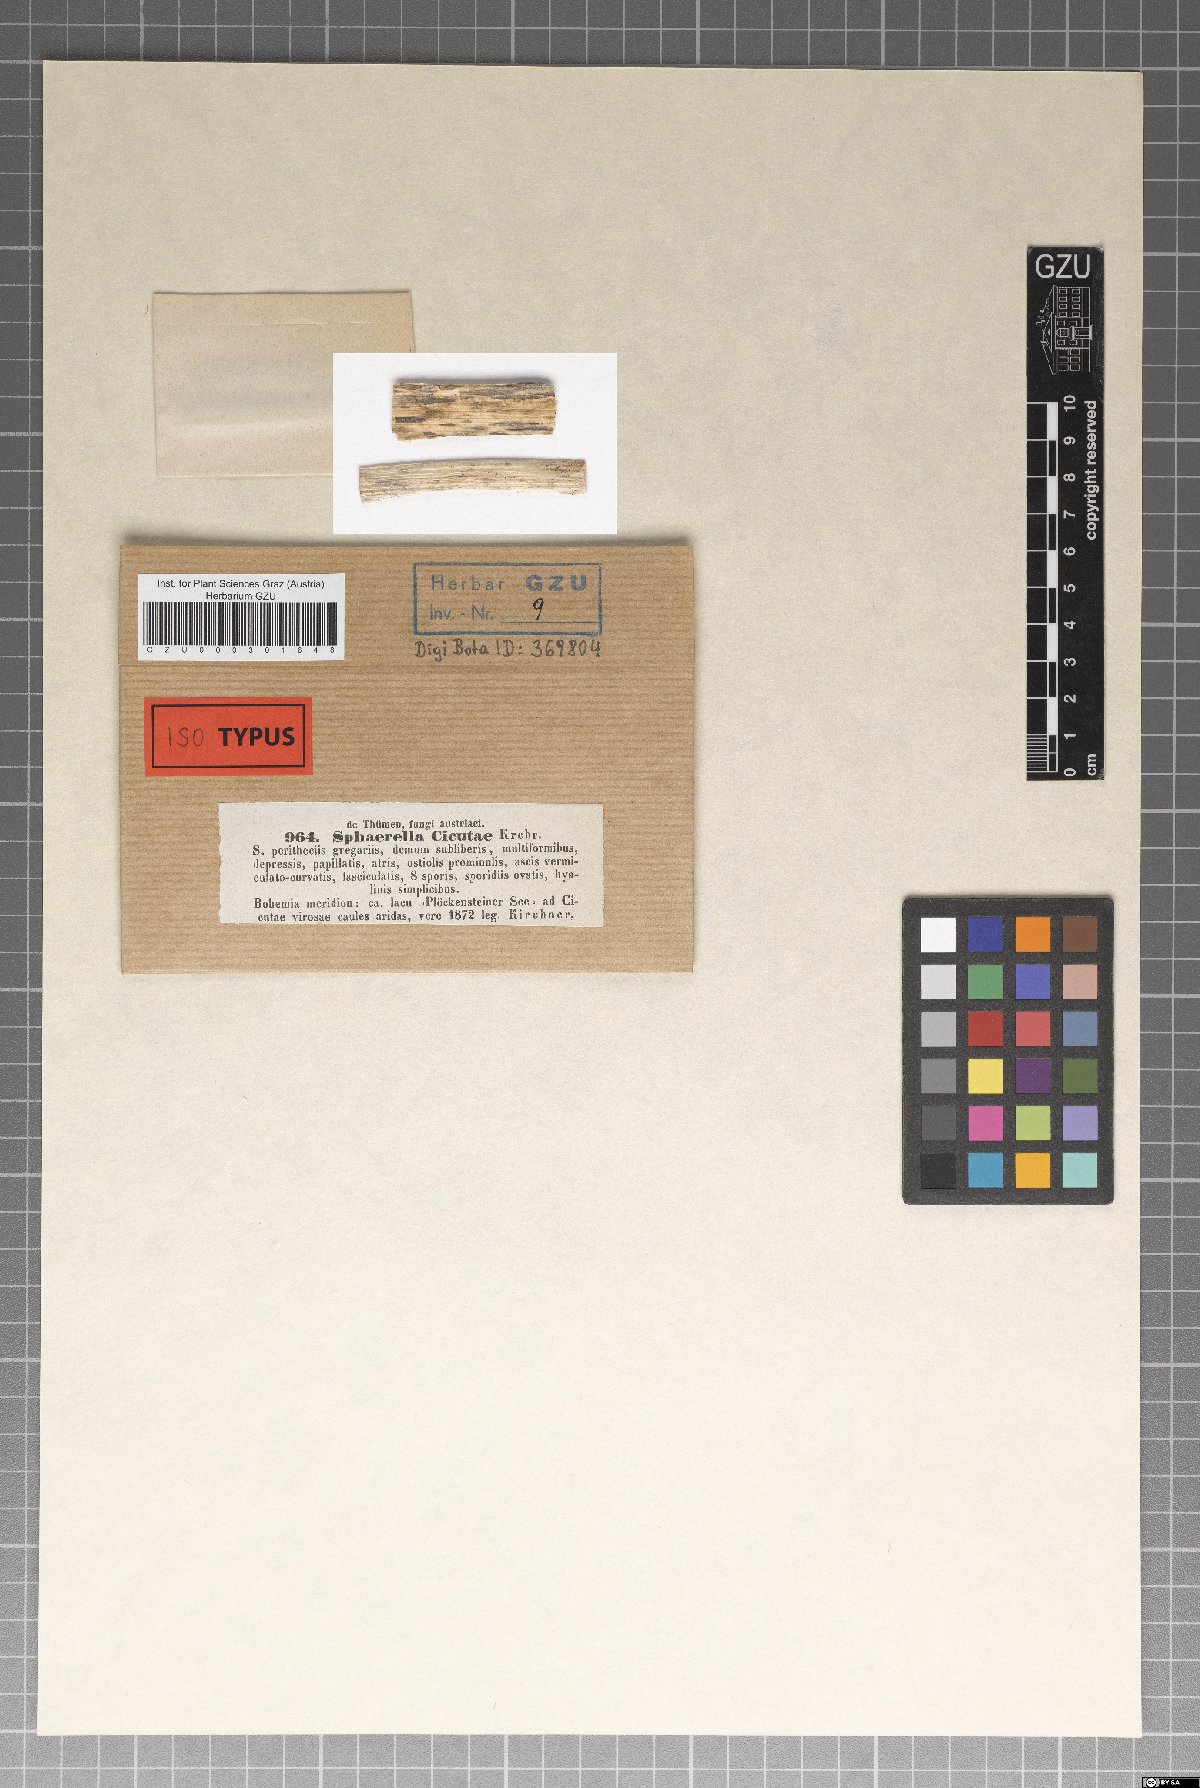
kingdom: Fungi
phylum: Ascomycota
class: Dothideomycetes
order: Mycosphaerellales
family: Mycosphaerellaceae
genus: Sphaerella
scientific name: Sphaerella
